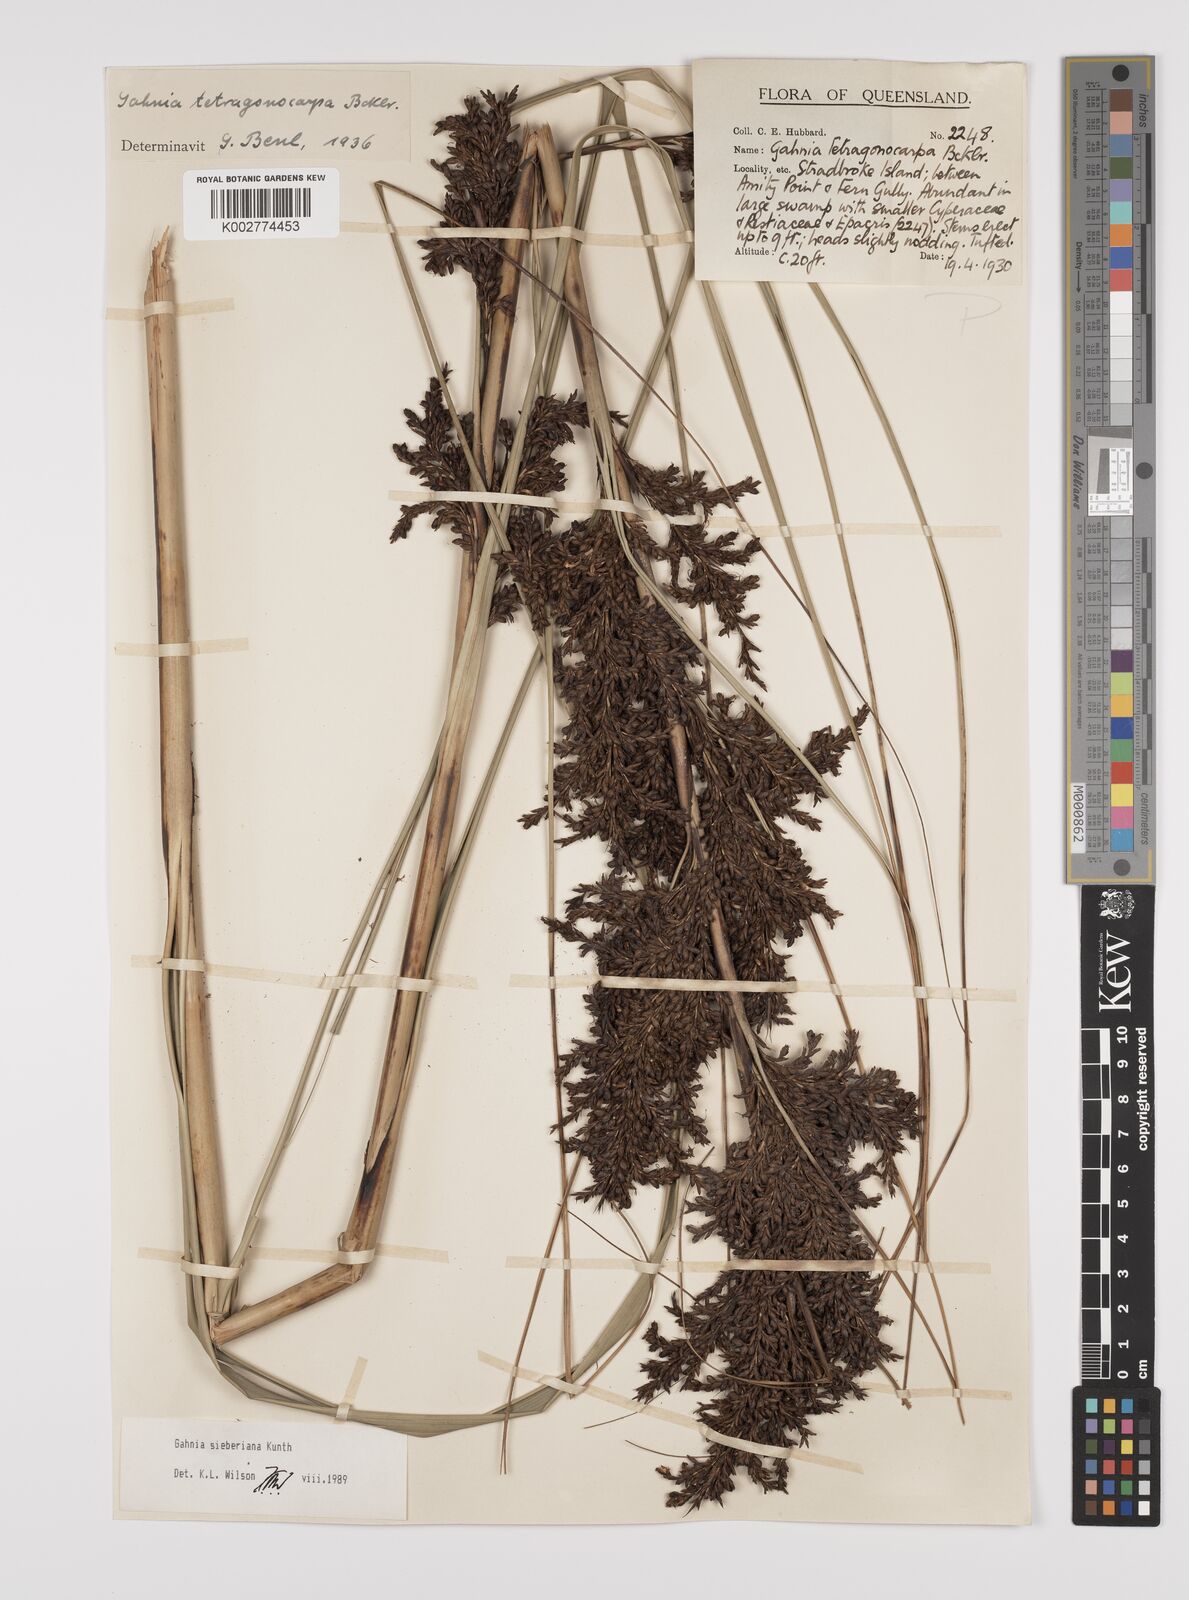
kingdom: Plantae
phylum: Tracheophyta
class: Liliopsida
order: Poales
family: Cyperaceae
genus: Gahnia
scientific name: Gahnia sieberiana
